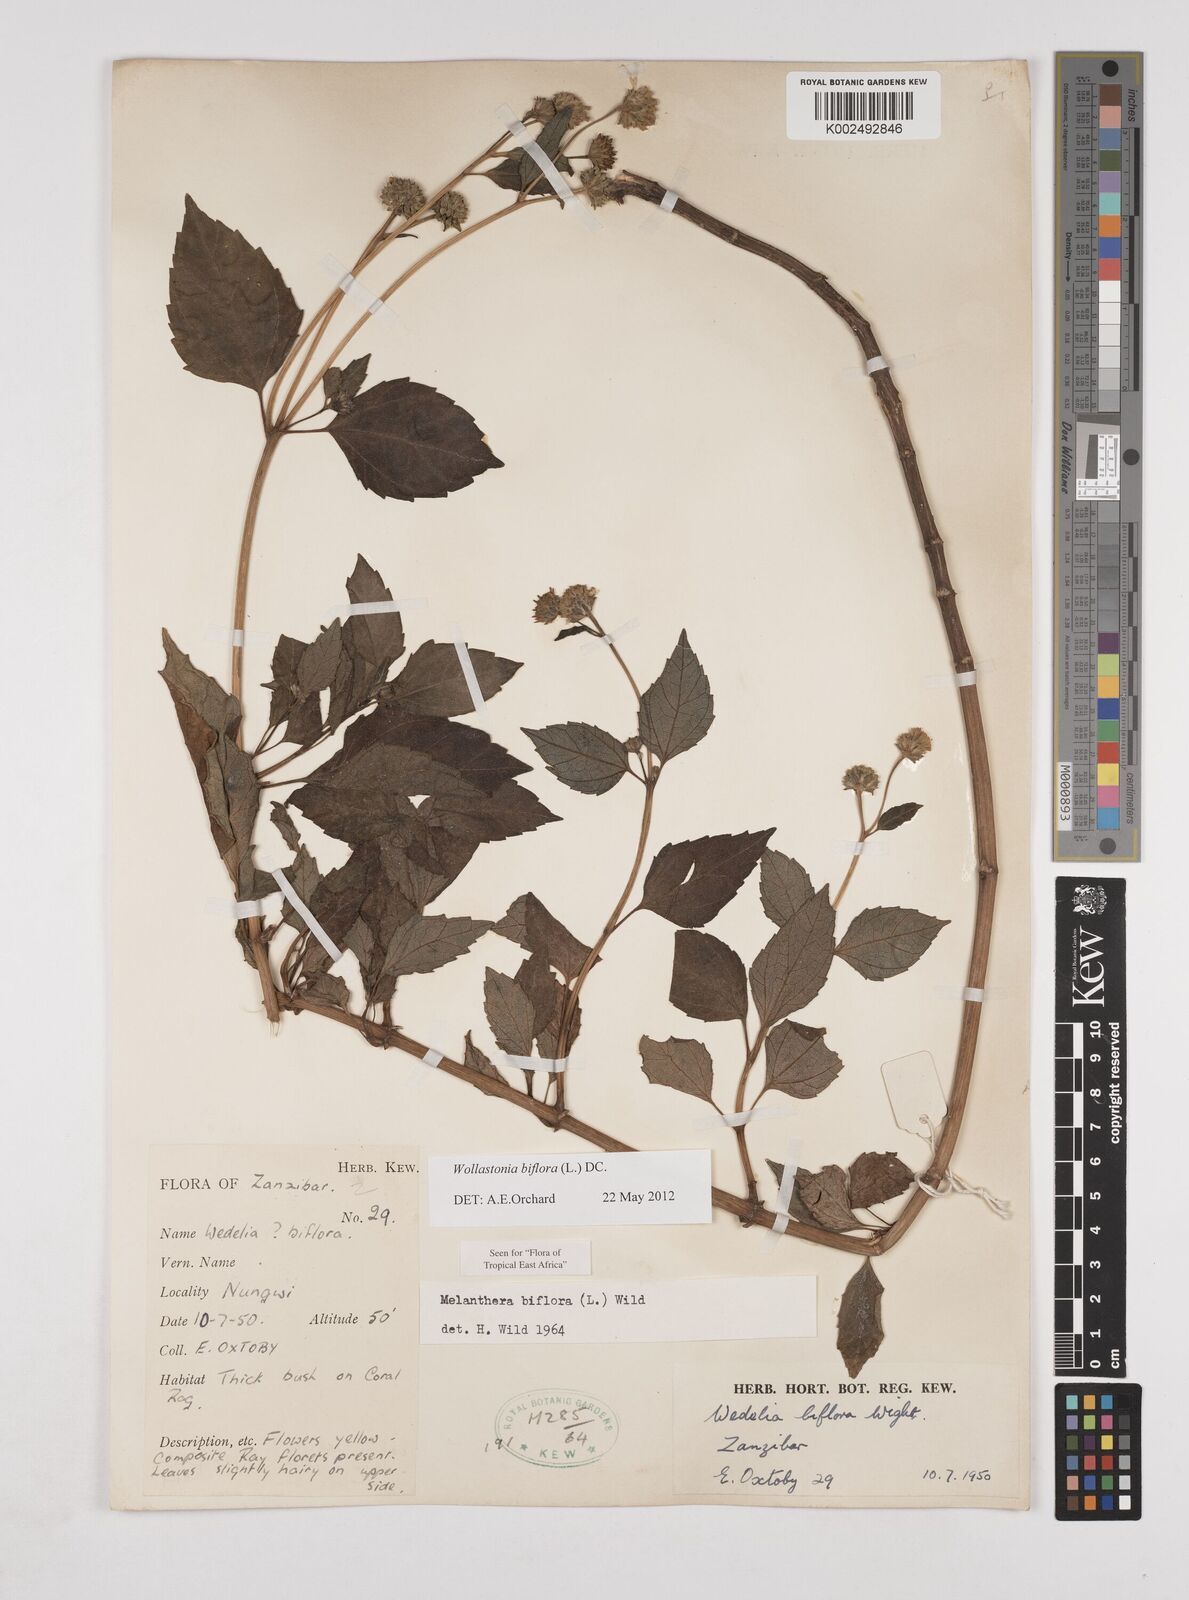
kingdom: Plantae
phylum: Tracheophyta
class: Magnoliopsida
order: Asterales
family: Asteraceae
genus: Wollastonia
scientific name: Wollastonia biflora
